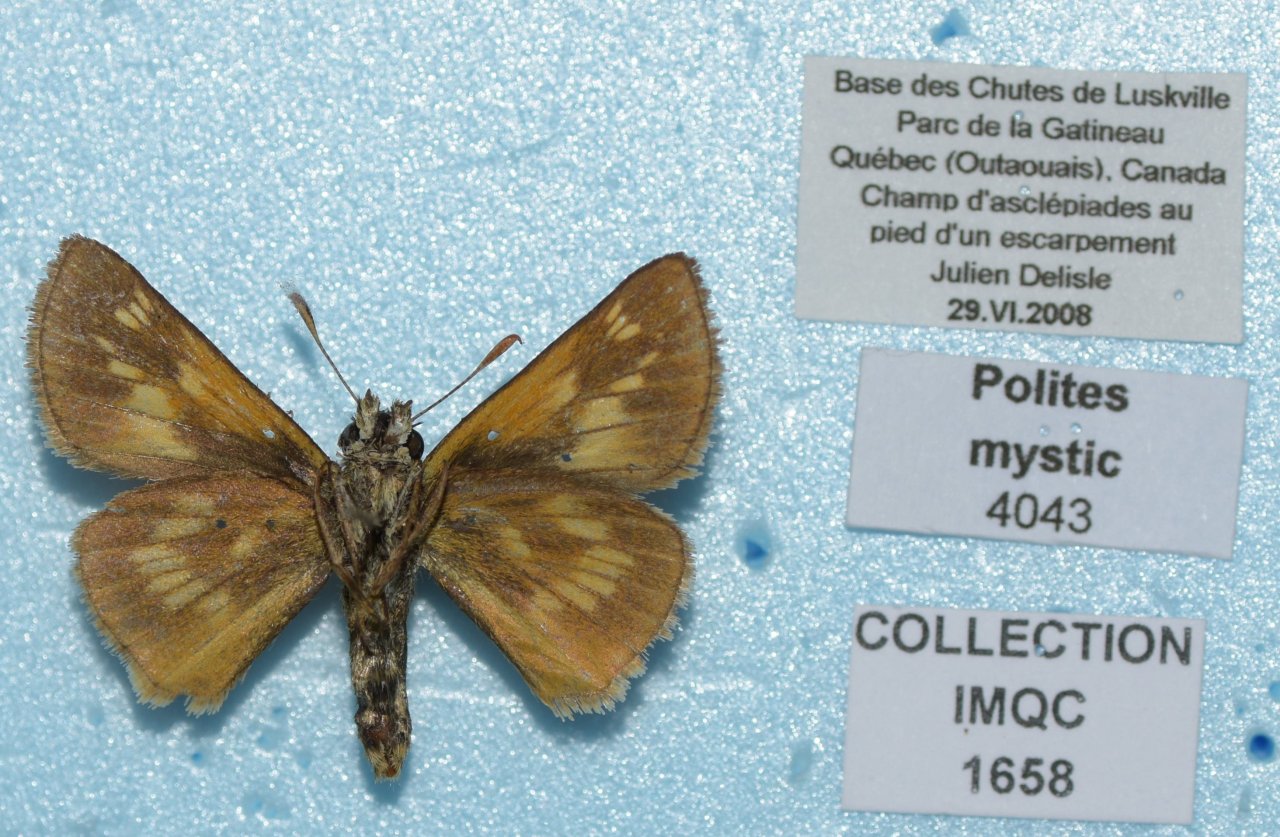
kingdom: Animalia
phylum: Arthropoda
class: Insecta
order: Lepidoptera
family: Hesperiidae
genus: Polites
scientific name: Polites
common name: Long Dash Skipper
